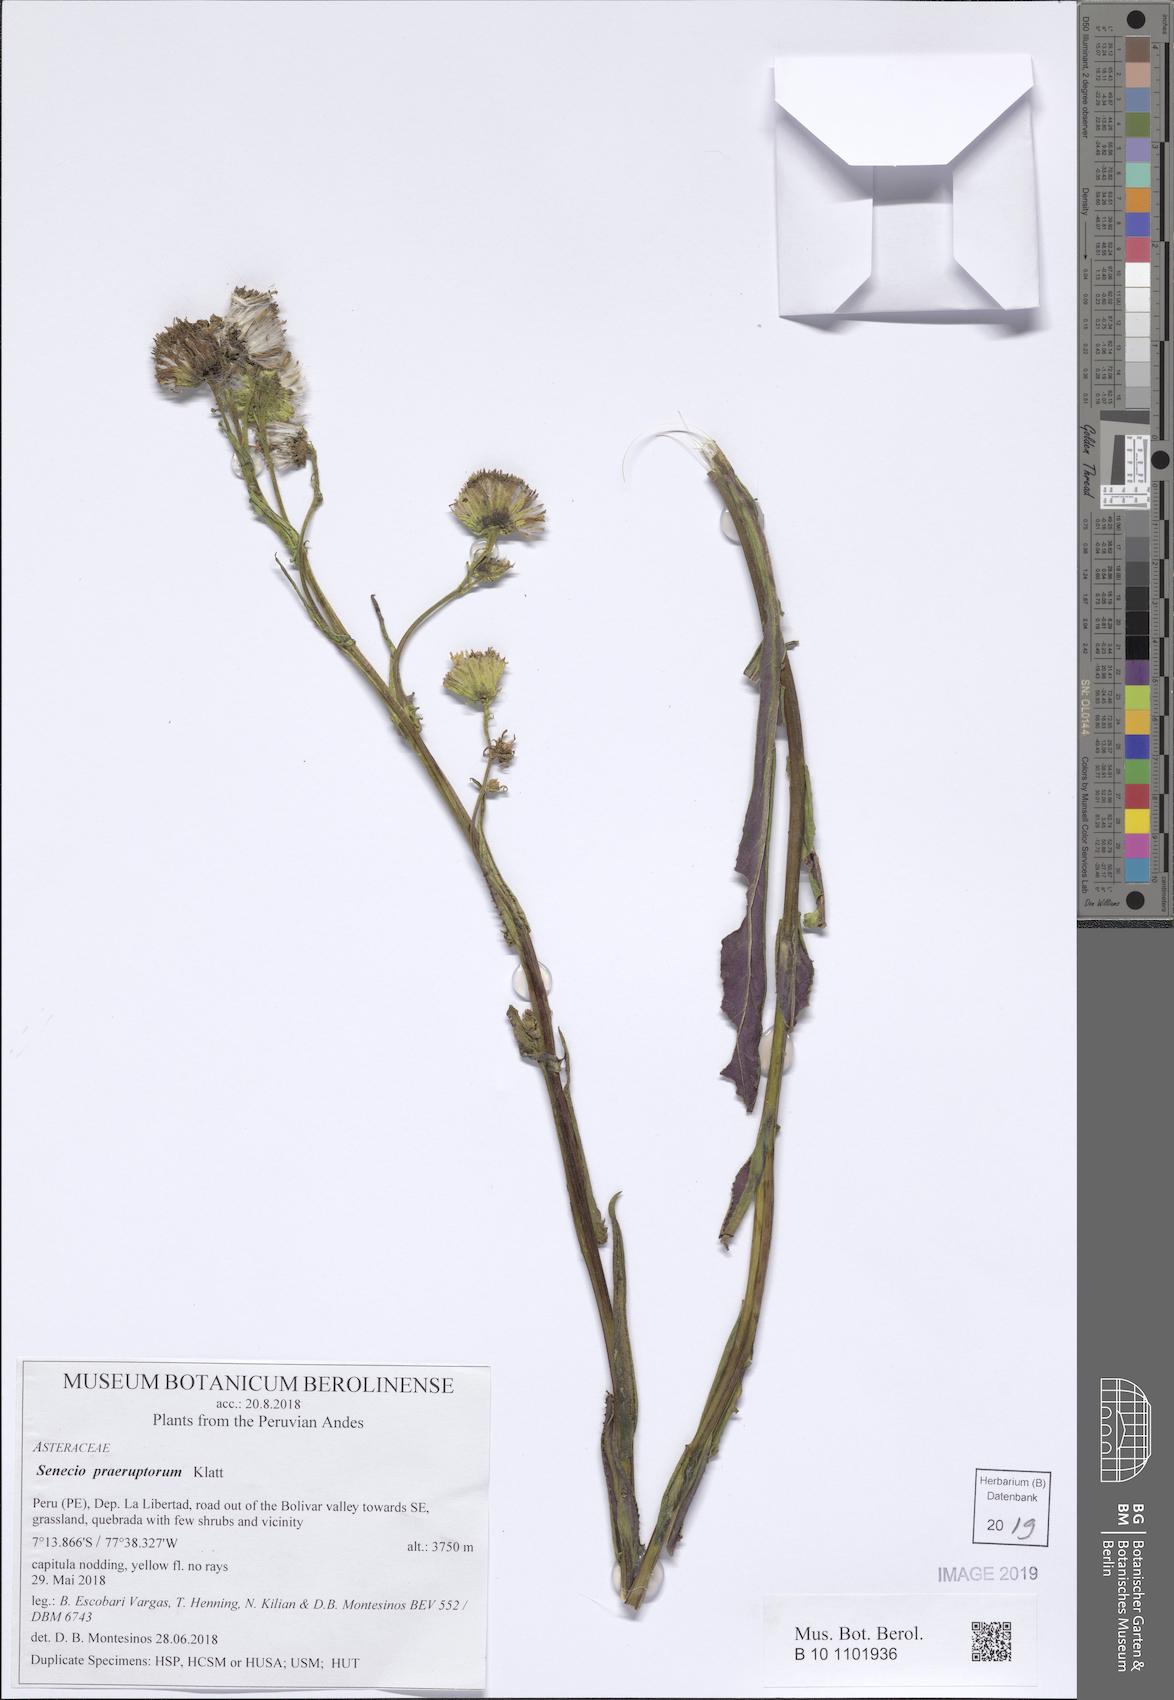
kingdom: Plantae
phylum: Tracheophyta
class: Magnoliopsida
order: Asterales
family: Asteraceae
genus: Senecio
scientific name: Senecio praeruptorum
